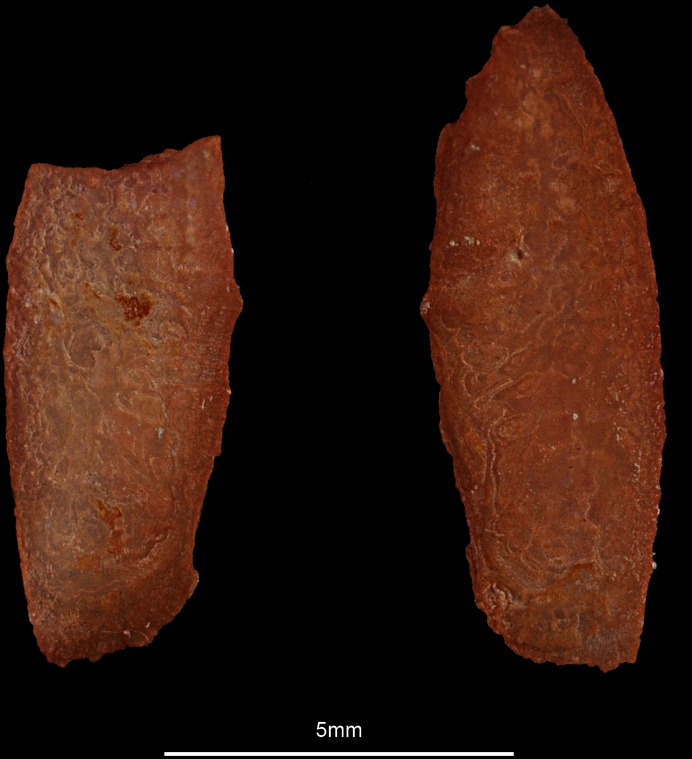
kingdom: Animalia
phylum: Chordata
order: Perciformes
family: Sphyraenidae
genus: Sphyraena
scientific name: Sphyraena sphyraena
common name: European barracuda
